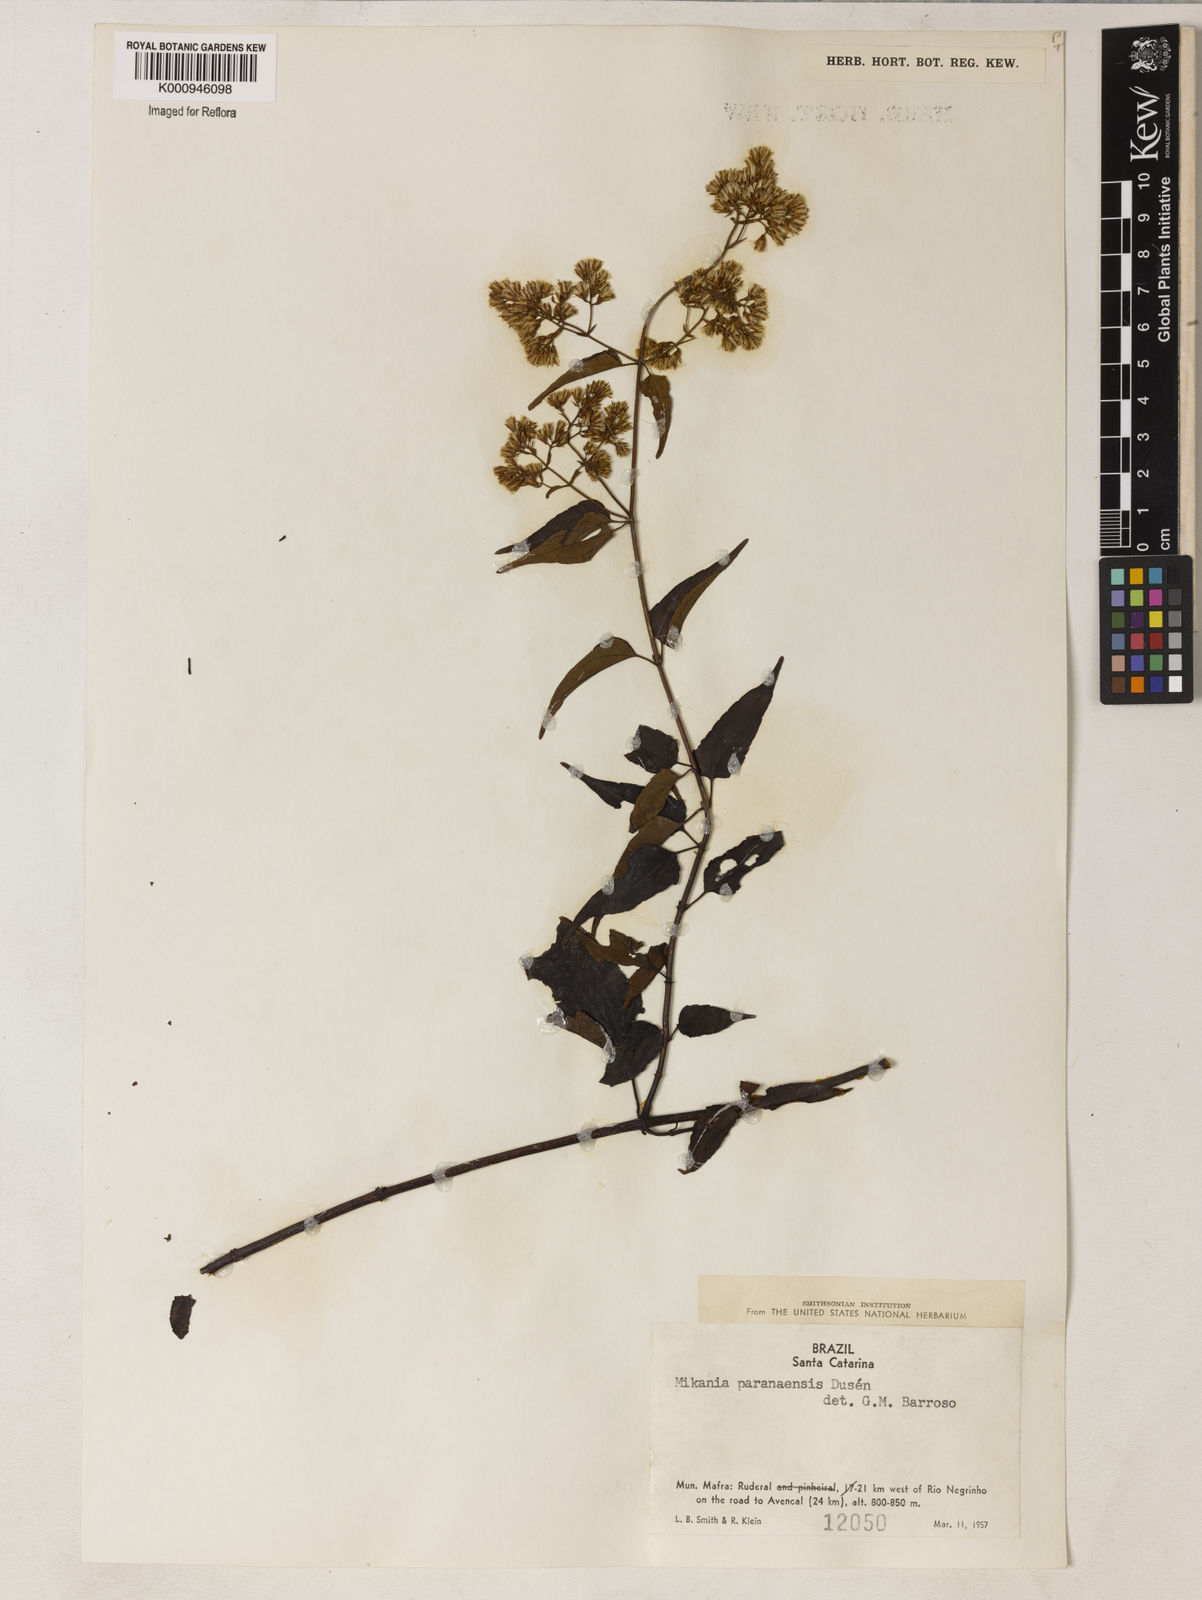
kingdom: Plantae
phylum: Tracheophyta
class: Magnoliopsida
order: Asterales
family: Asteraceae
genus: Mikania
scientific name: Mikania periplocifolia
